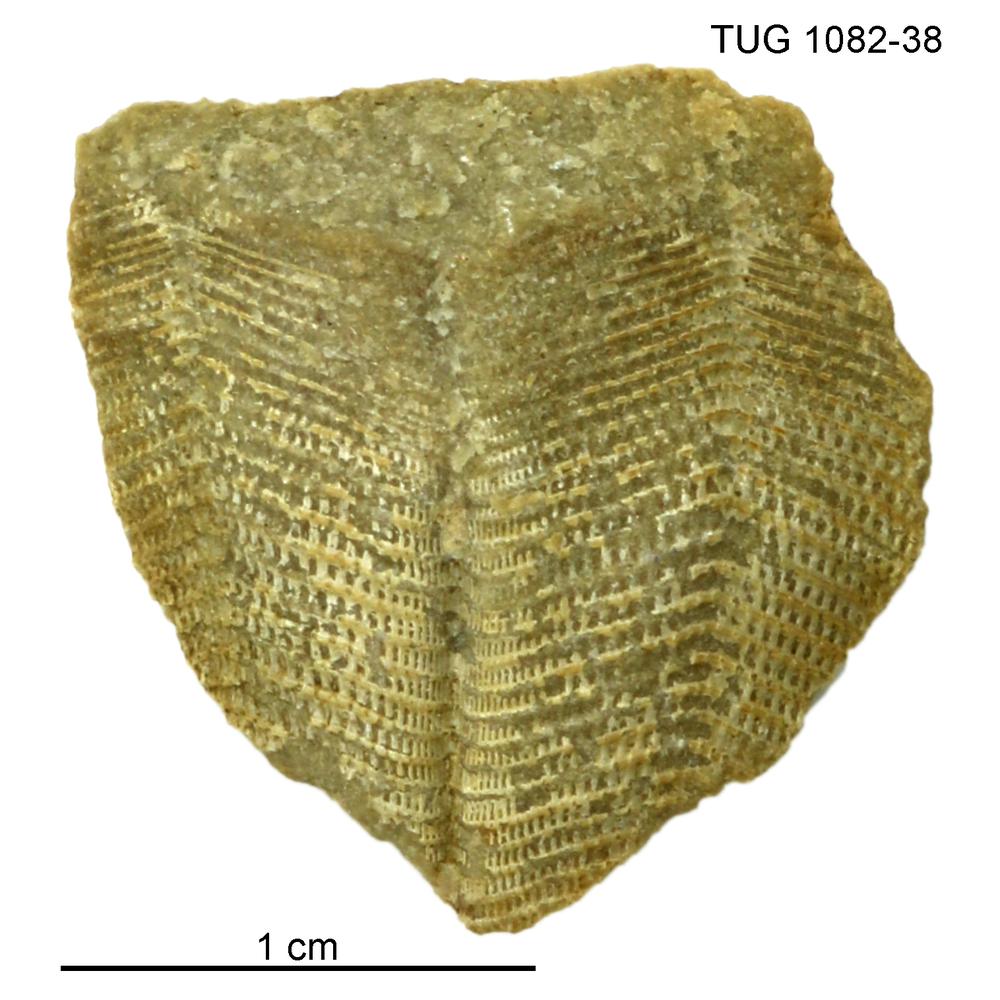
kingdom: Animalia
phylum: Cnidaria
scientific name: Cnidaria
